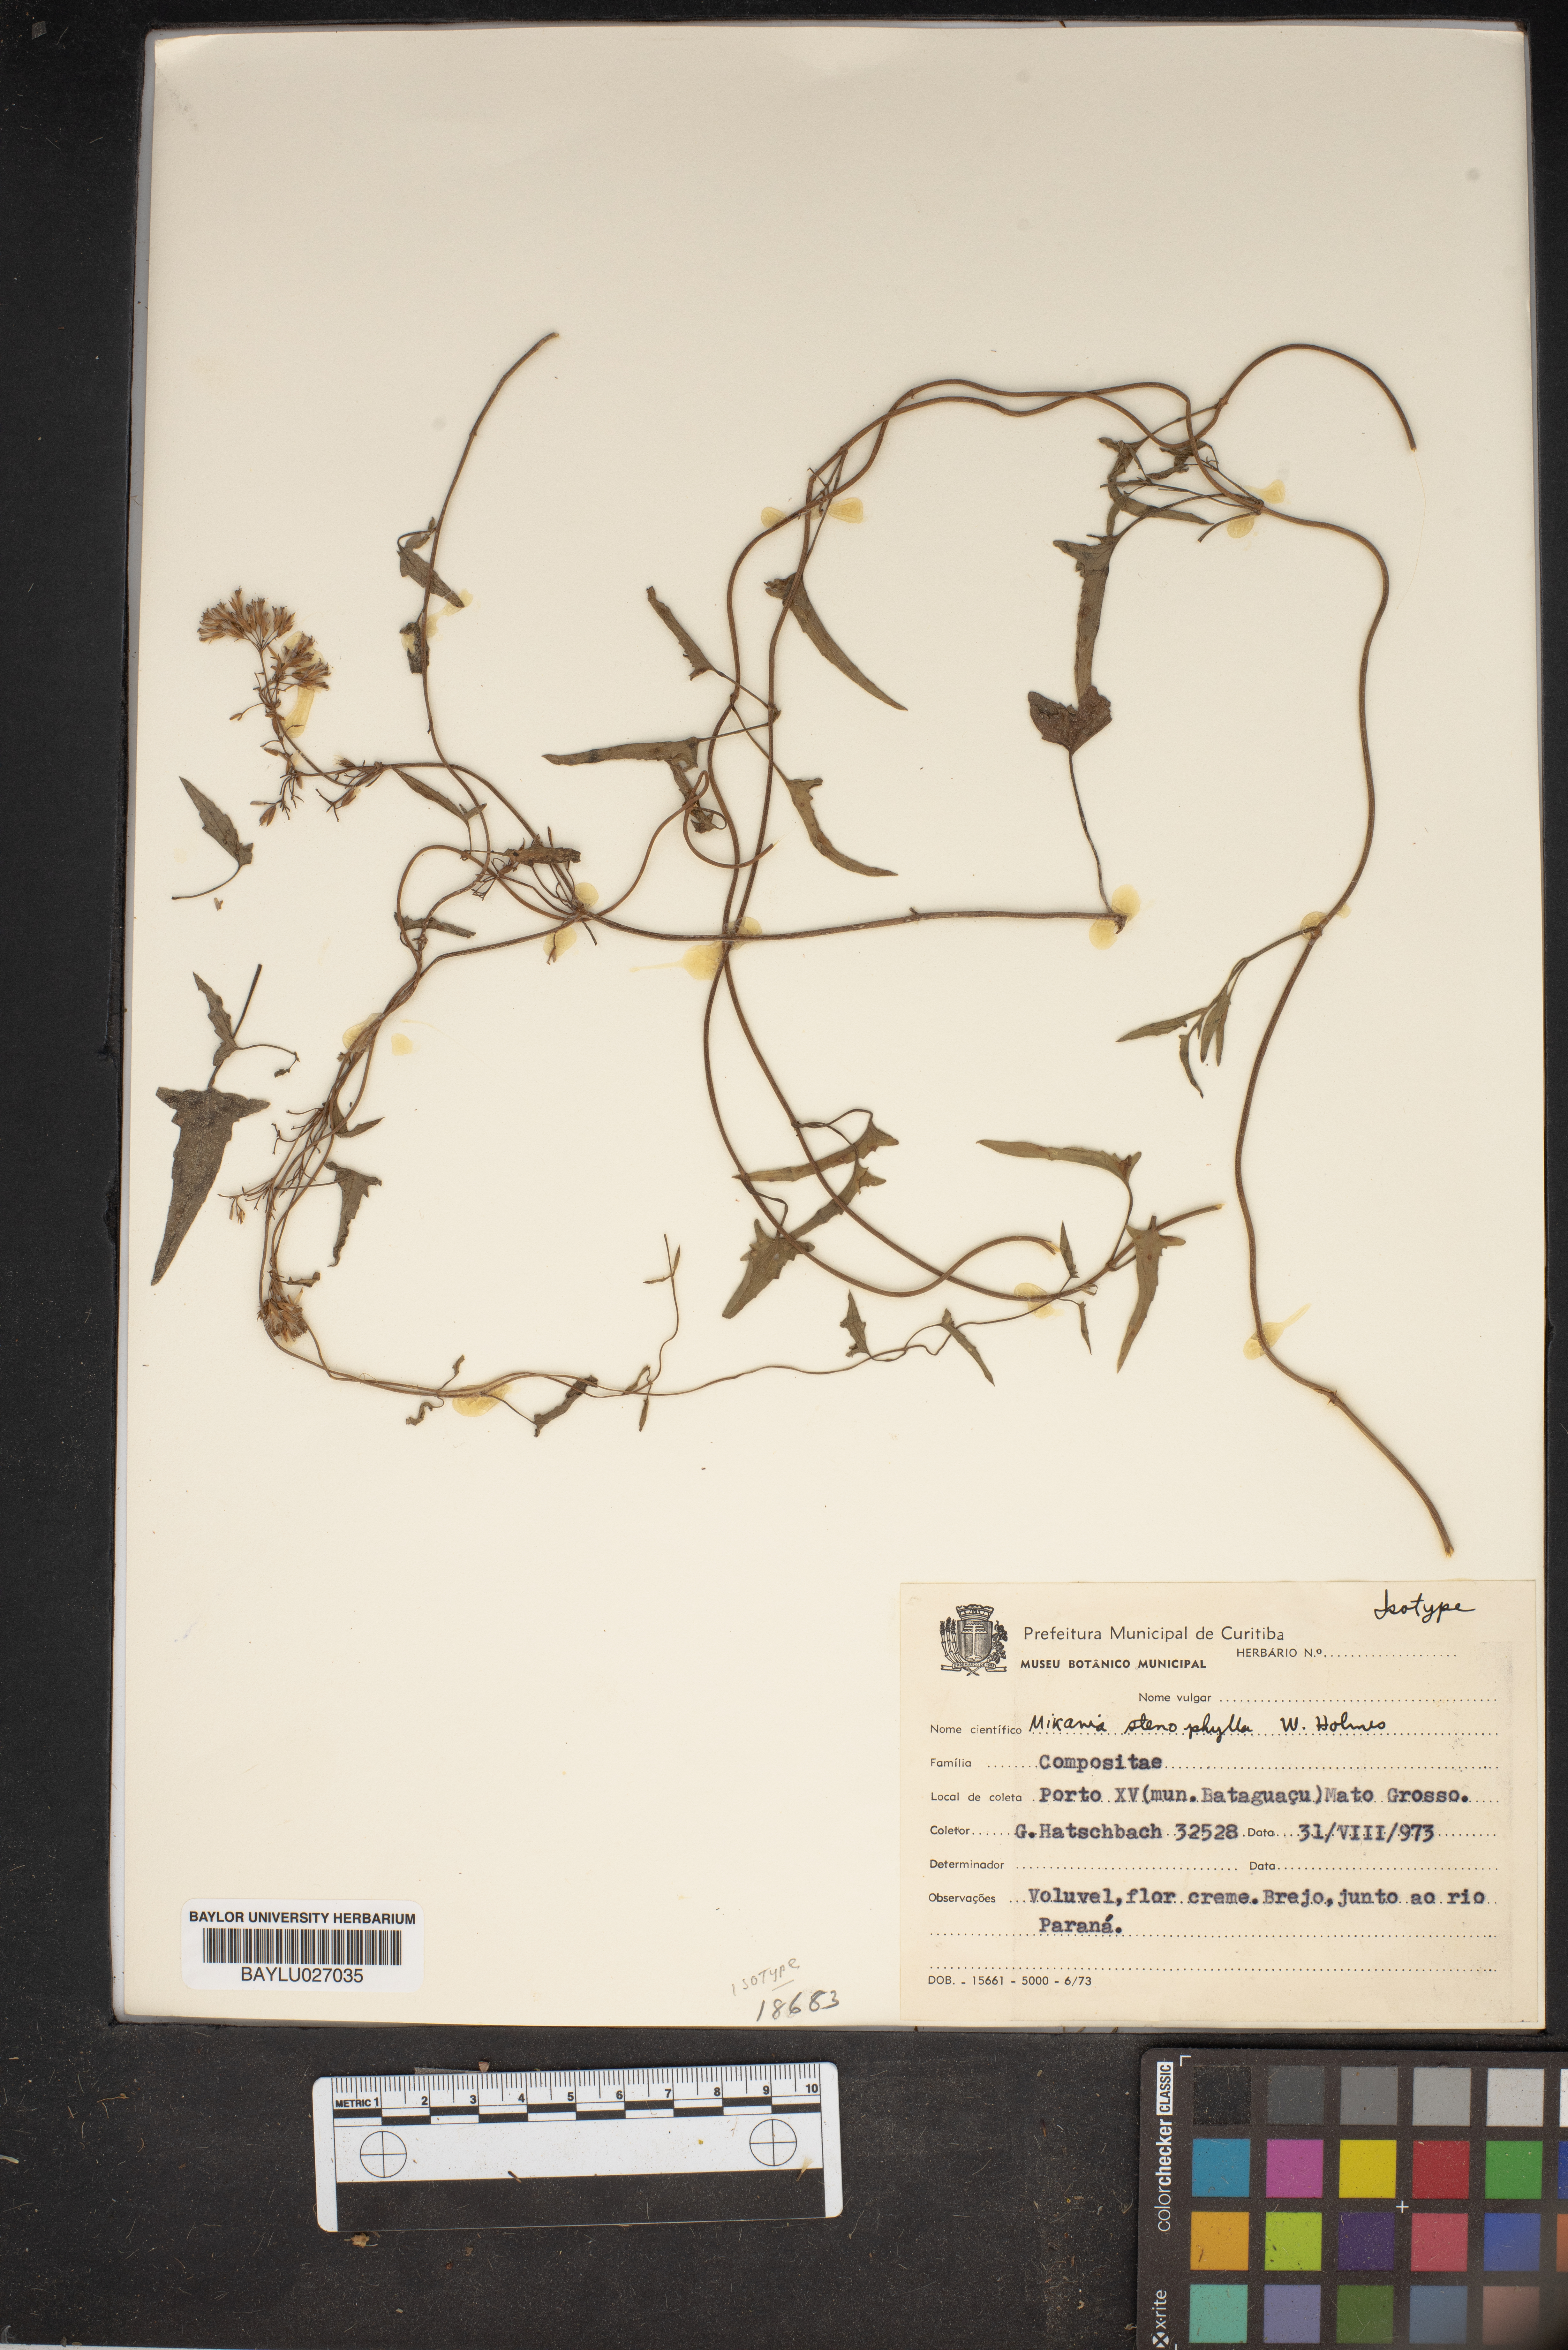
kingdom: Plantae
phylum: Tracheophyta
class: Magnoliopsida
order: Asterales
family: Asteraceae
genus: Mikania
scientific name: Mikania stenophylla
